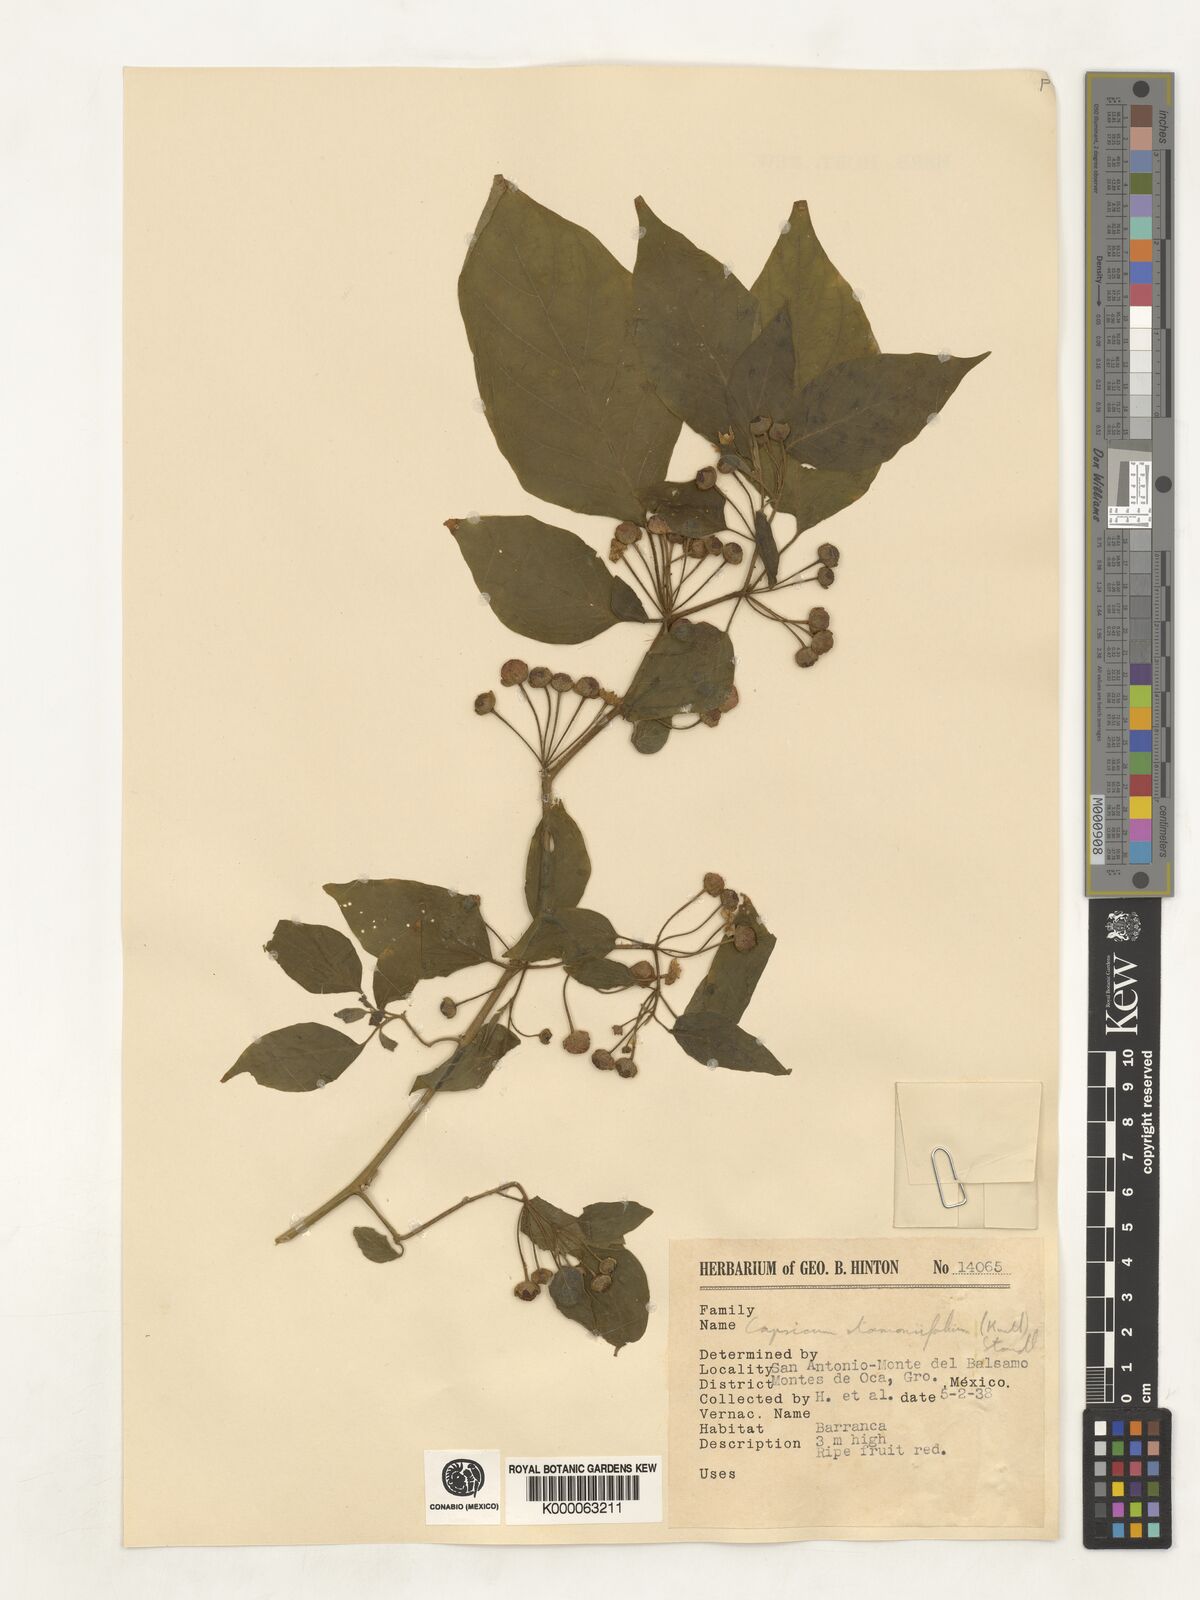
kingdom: Plantae
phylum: Tracheophyta
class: Magnoliopsida
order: Solanales
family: Solanaceae
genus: Brachistus
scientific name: Brachistus stramonifolius
